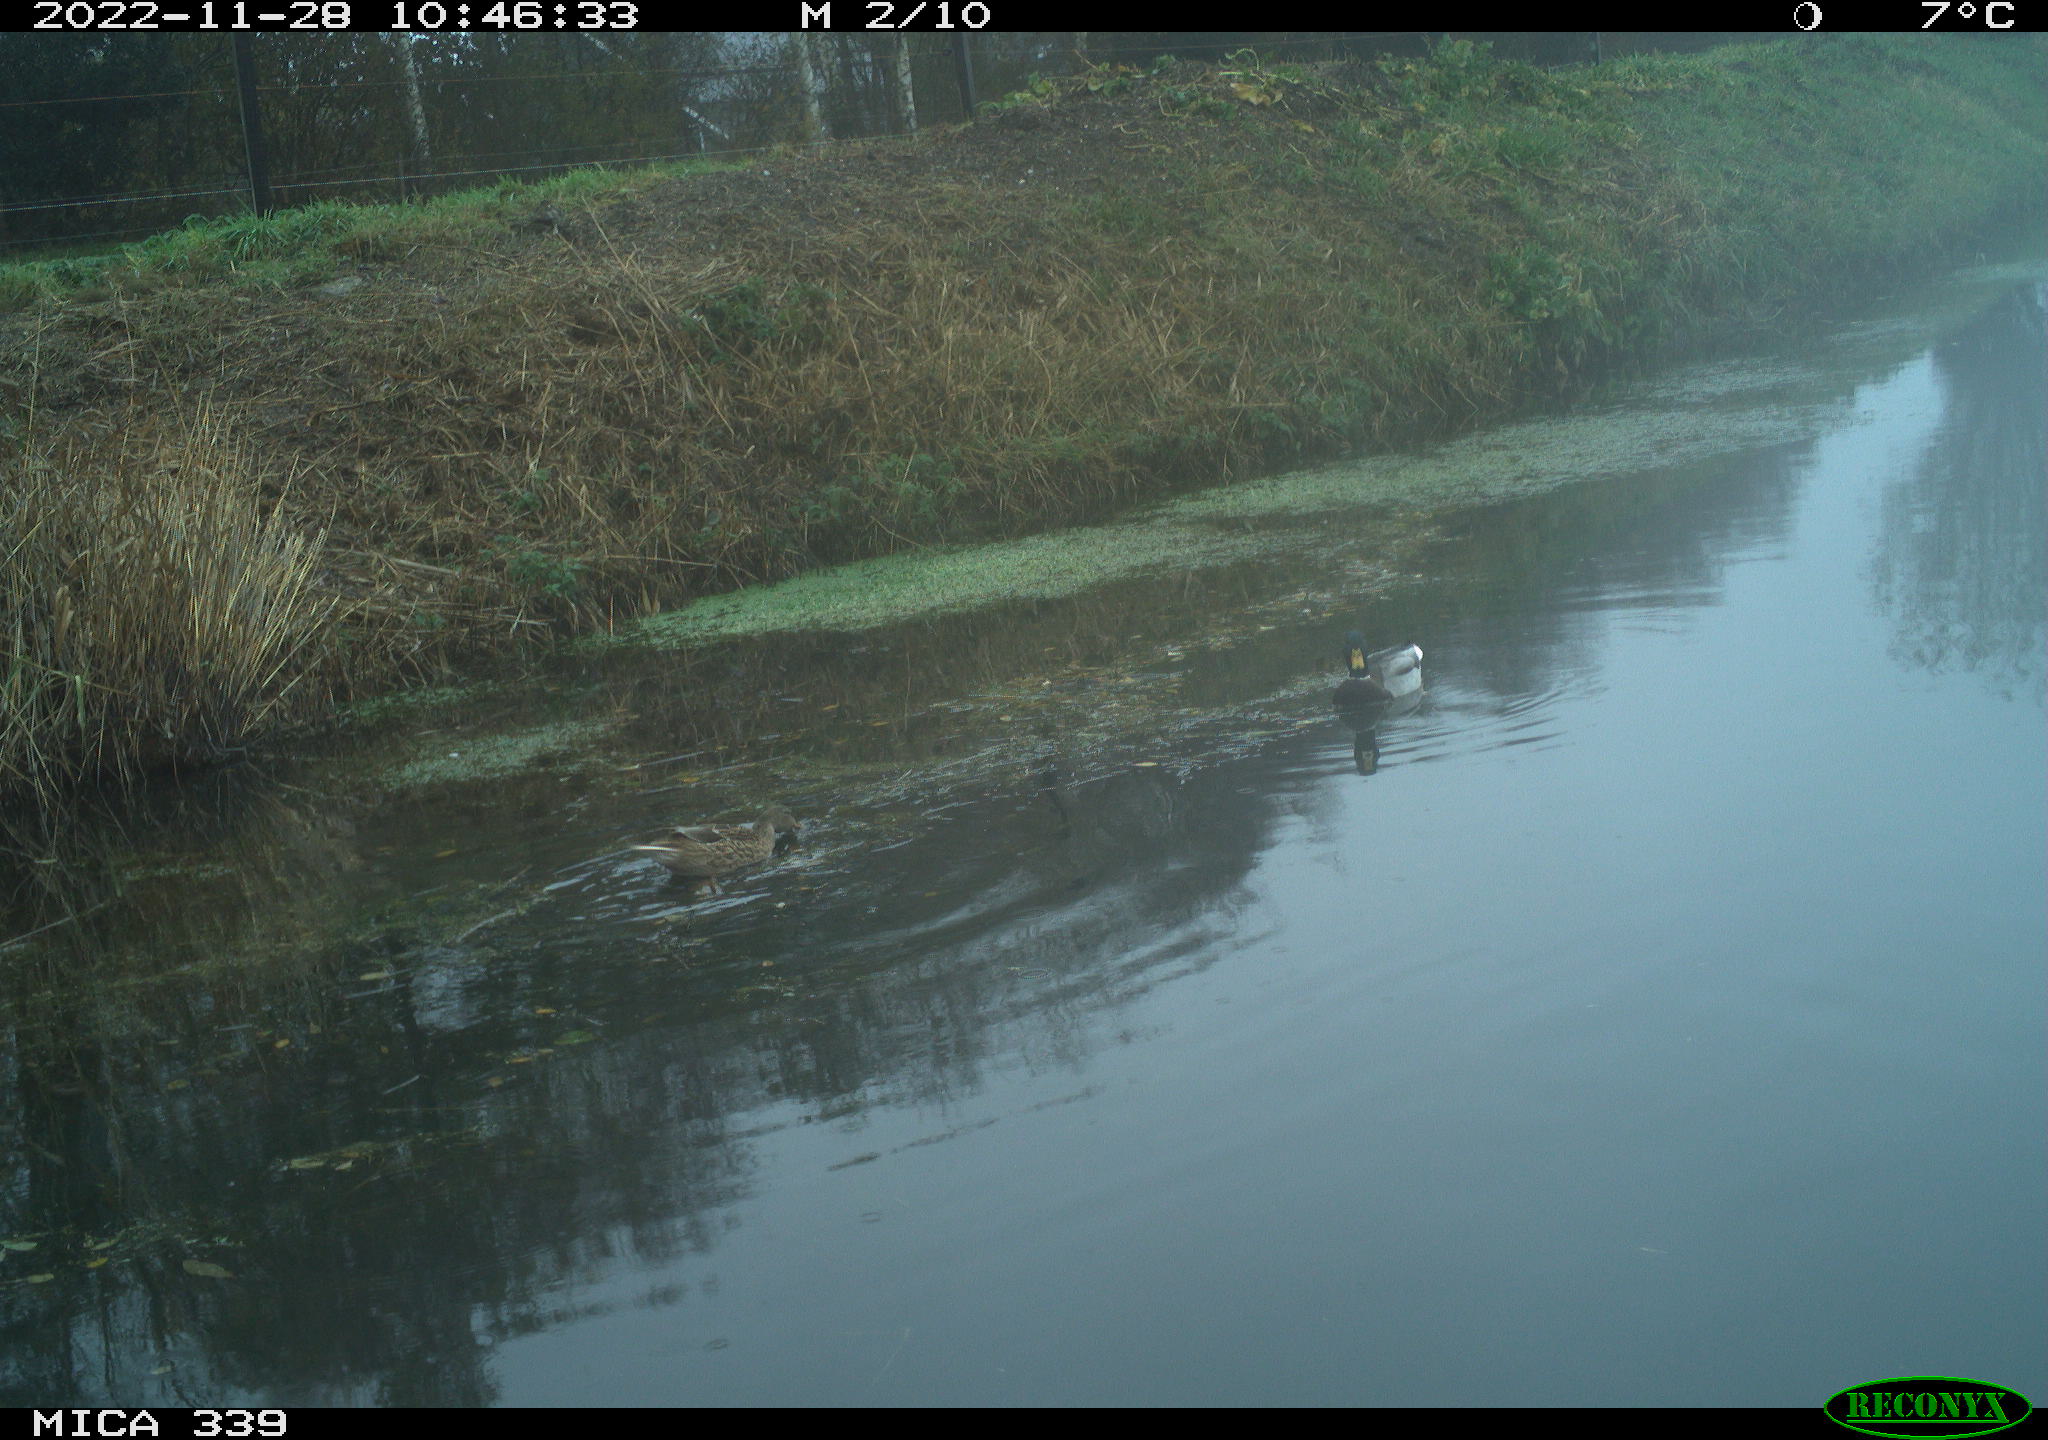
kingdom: Animalia
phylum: Chordata
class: Aves
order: Anseriformes
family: Anatidae
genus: Anas
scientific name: Anas platyrhynchos
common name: Mallard
